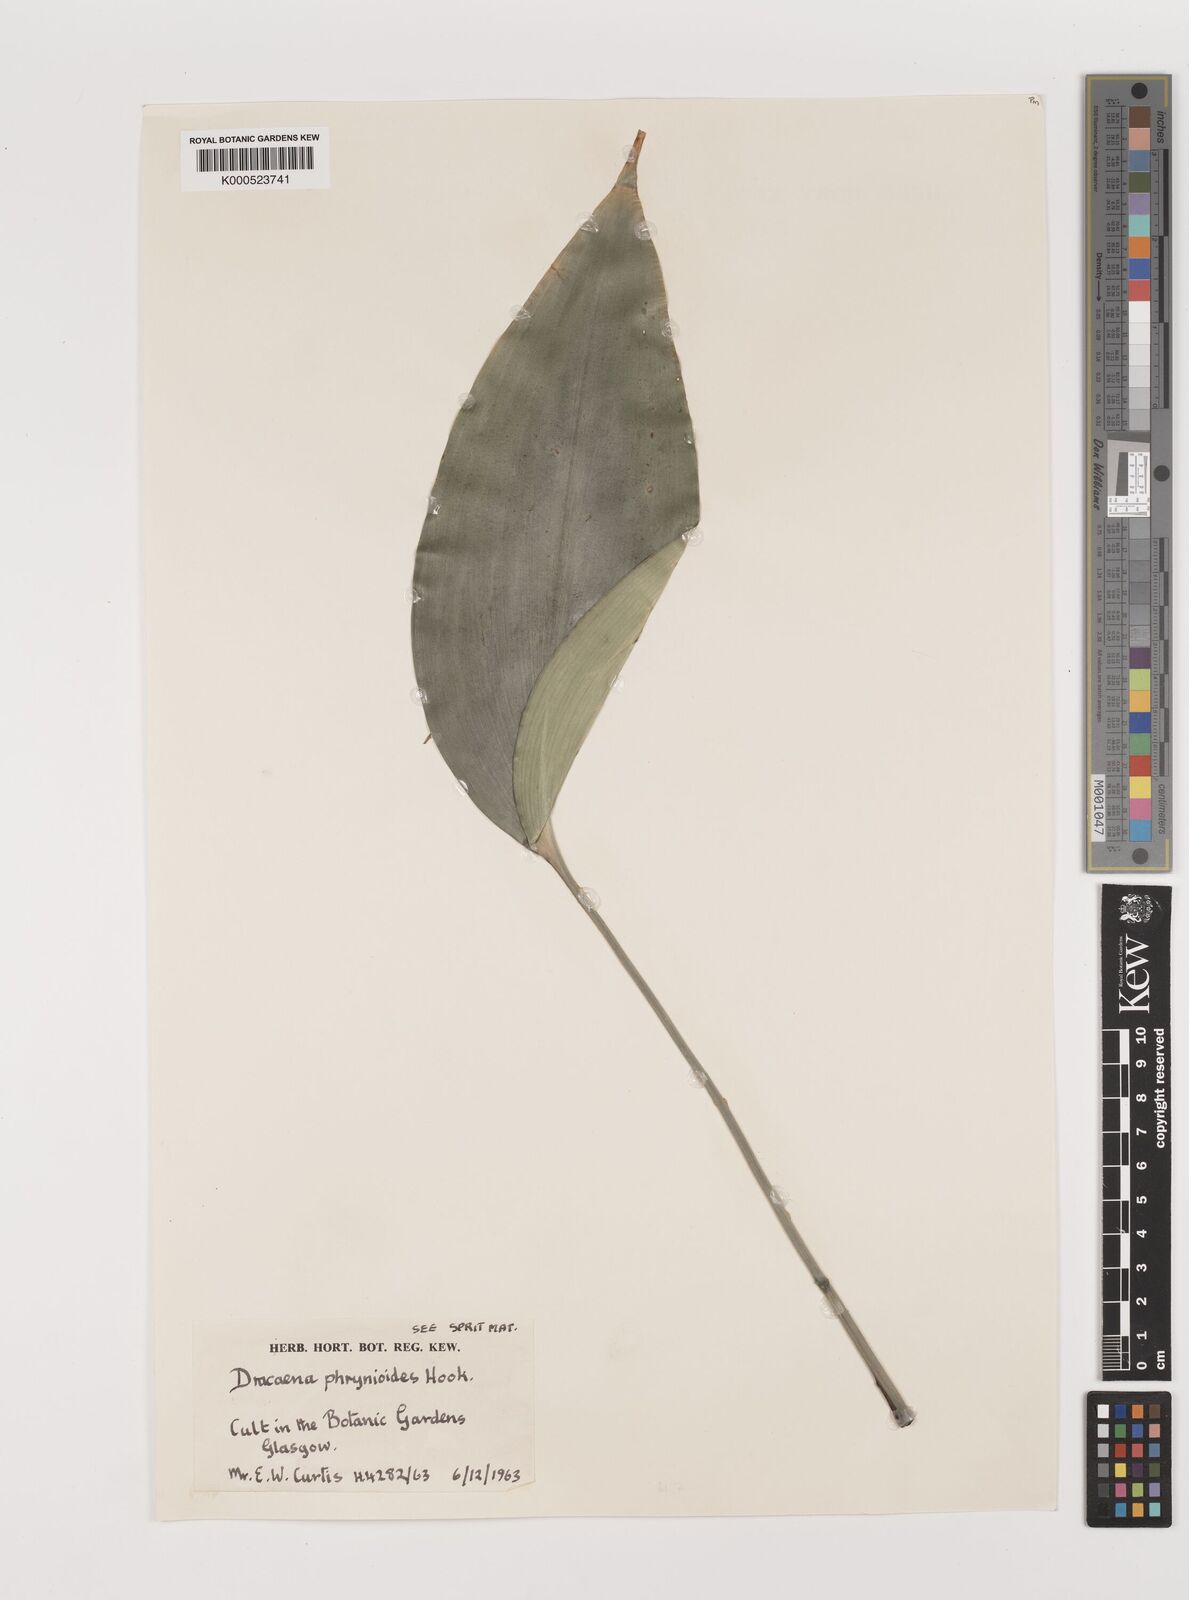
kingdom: Plantae
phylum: Tracheophyta
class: Liliopsida
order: Asparagales
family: Asparagaceae
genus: Dracaena
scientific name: Dracaena phrynioides
